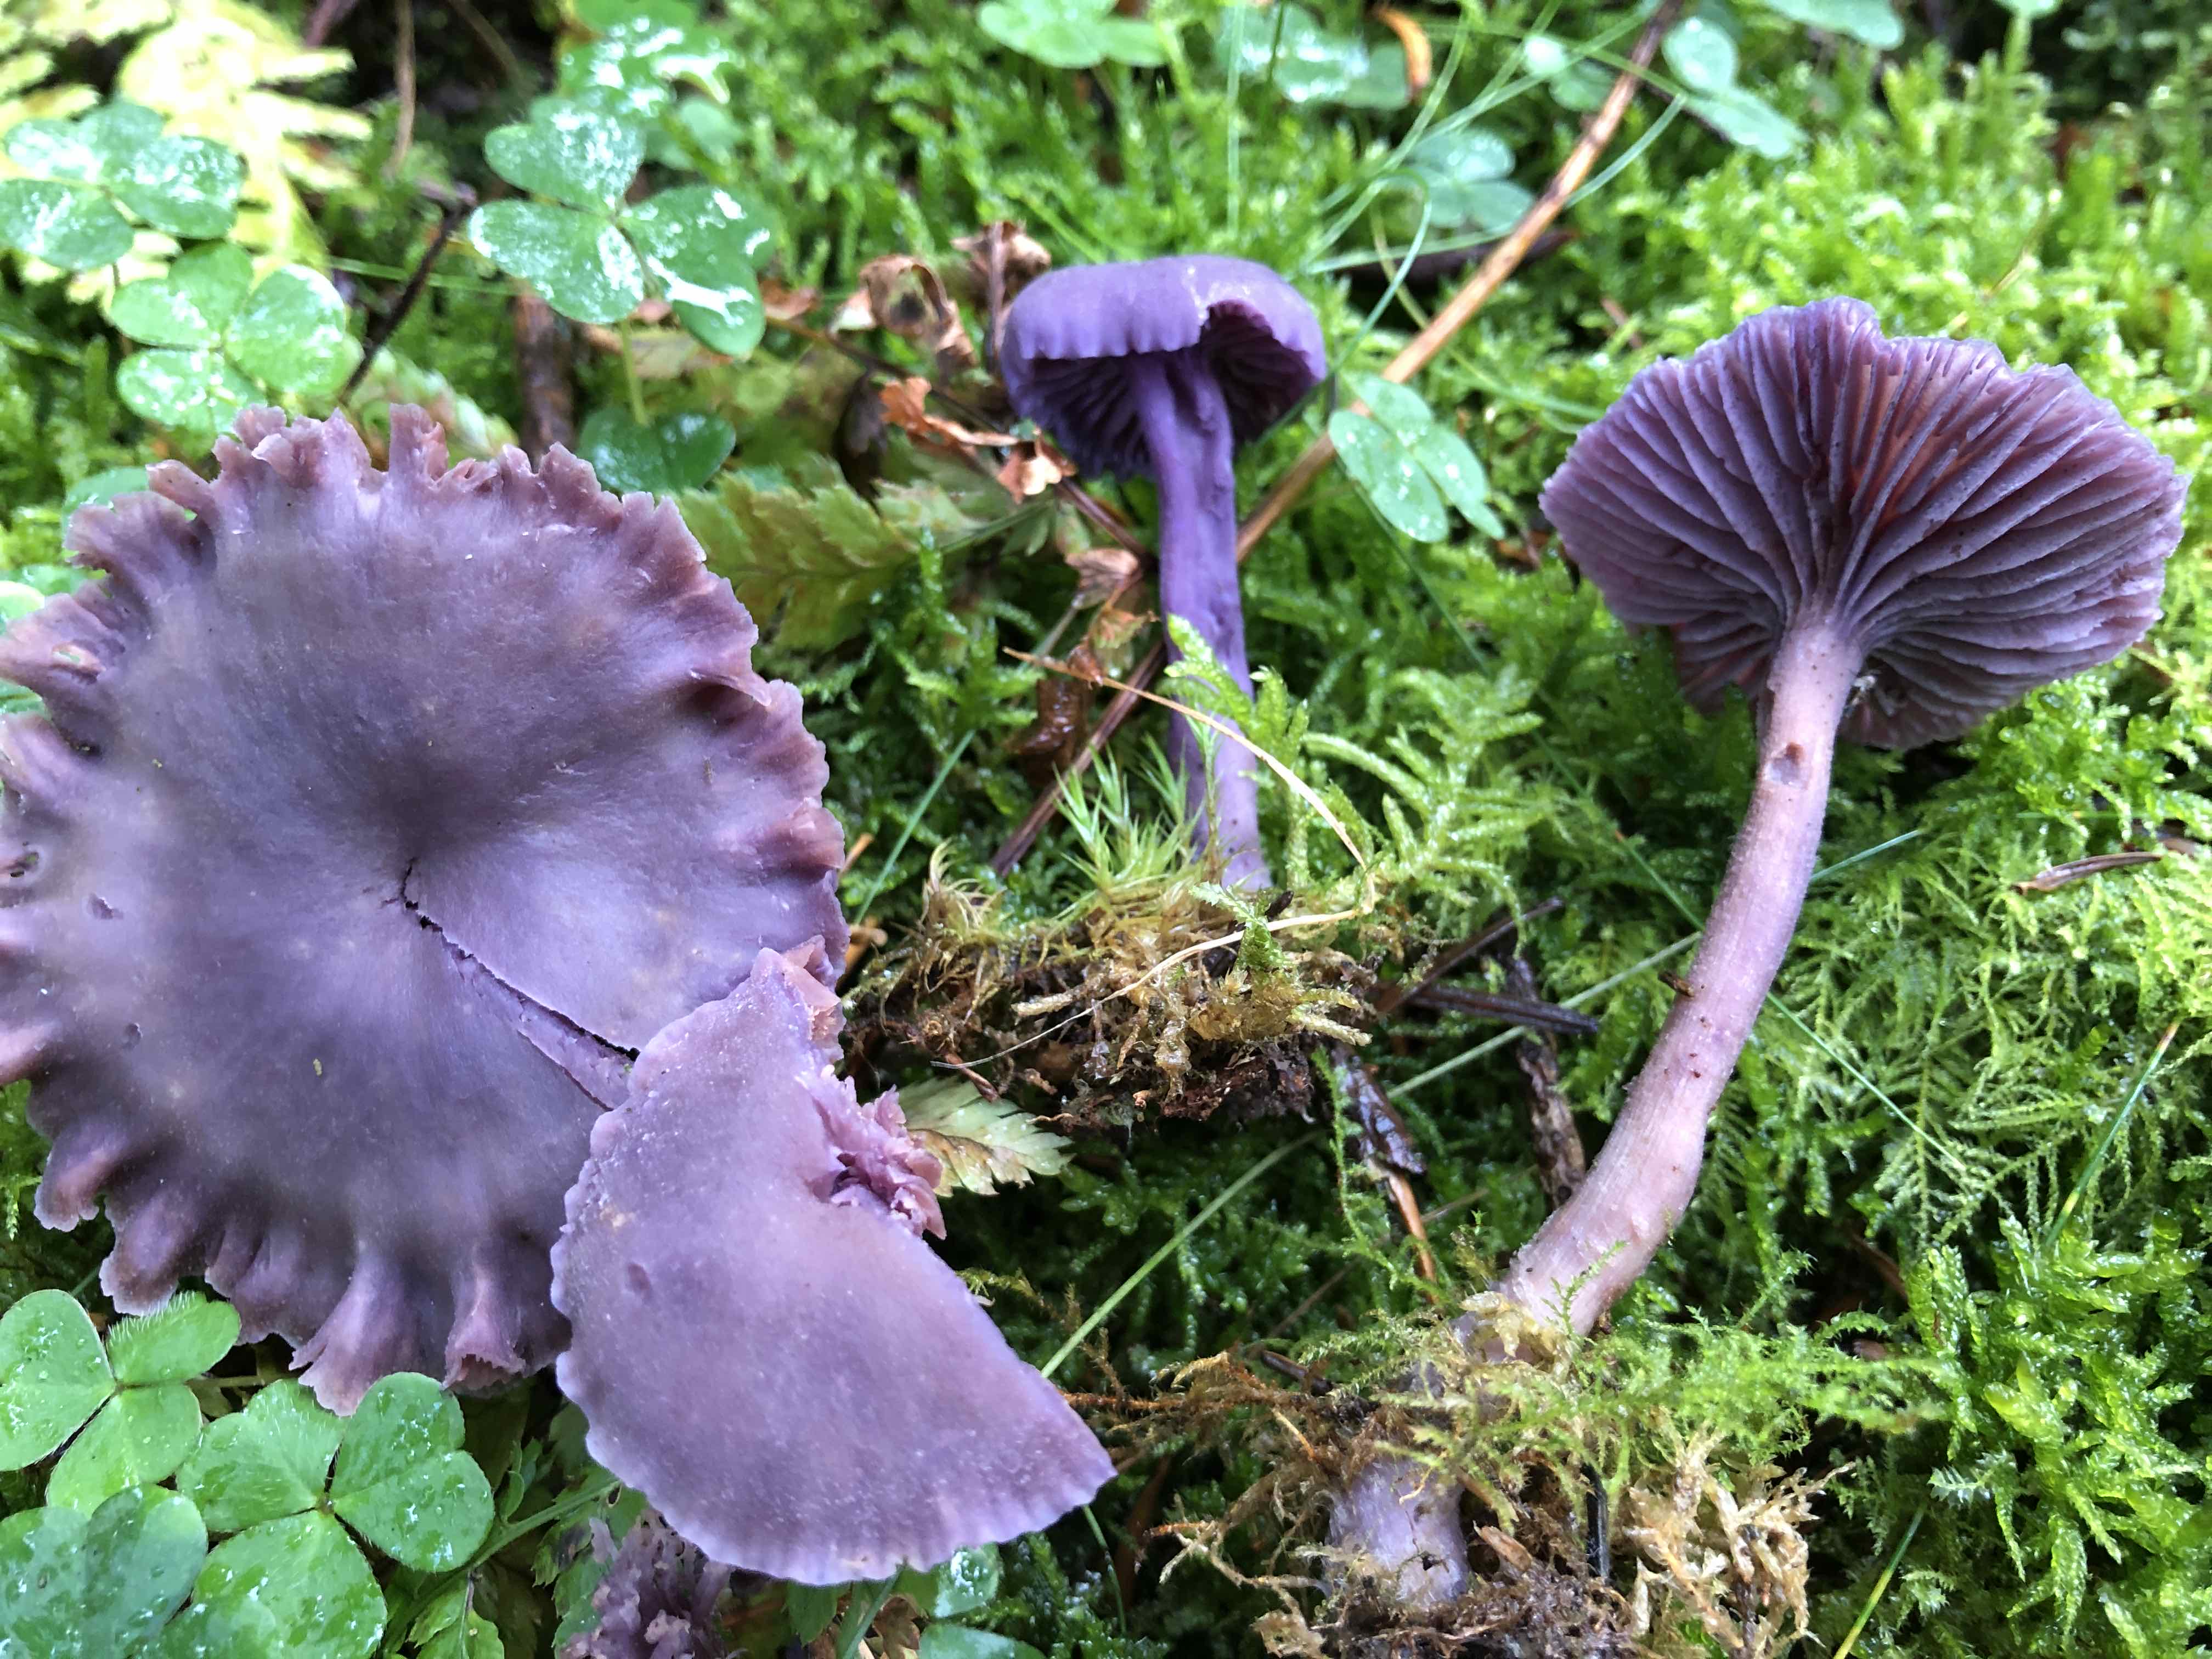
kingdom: Fungi
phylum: Basidiomycota
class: Agaricomycetes
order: Agaricales
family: Hydnangiaceae
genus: Laccaria
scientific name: Laccaria amethystina
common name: violet ametysthat
